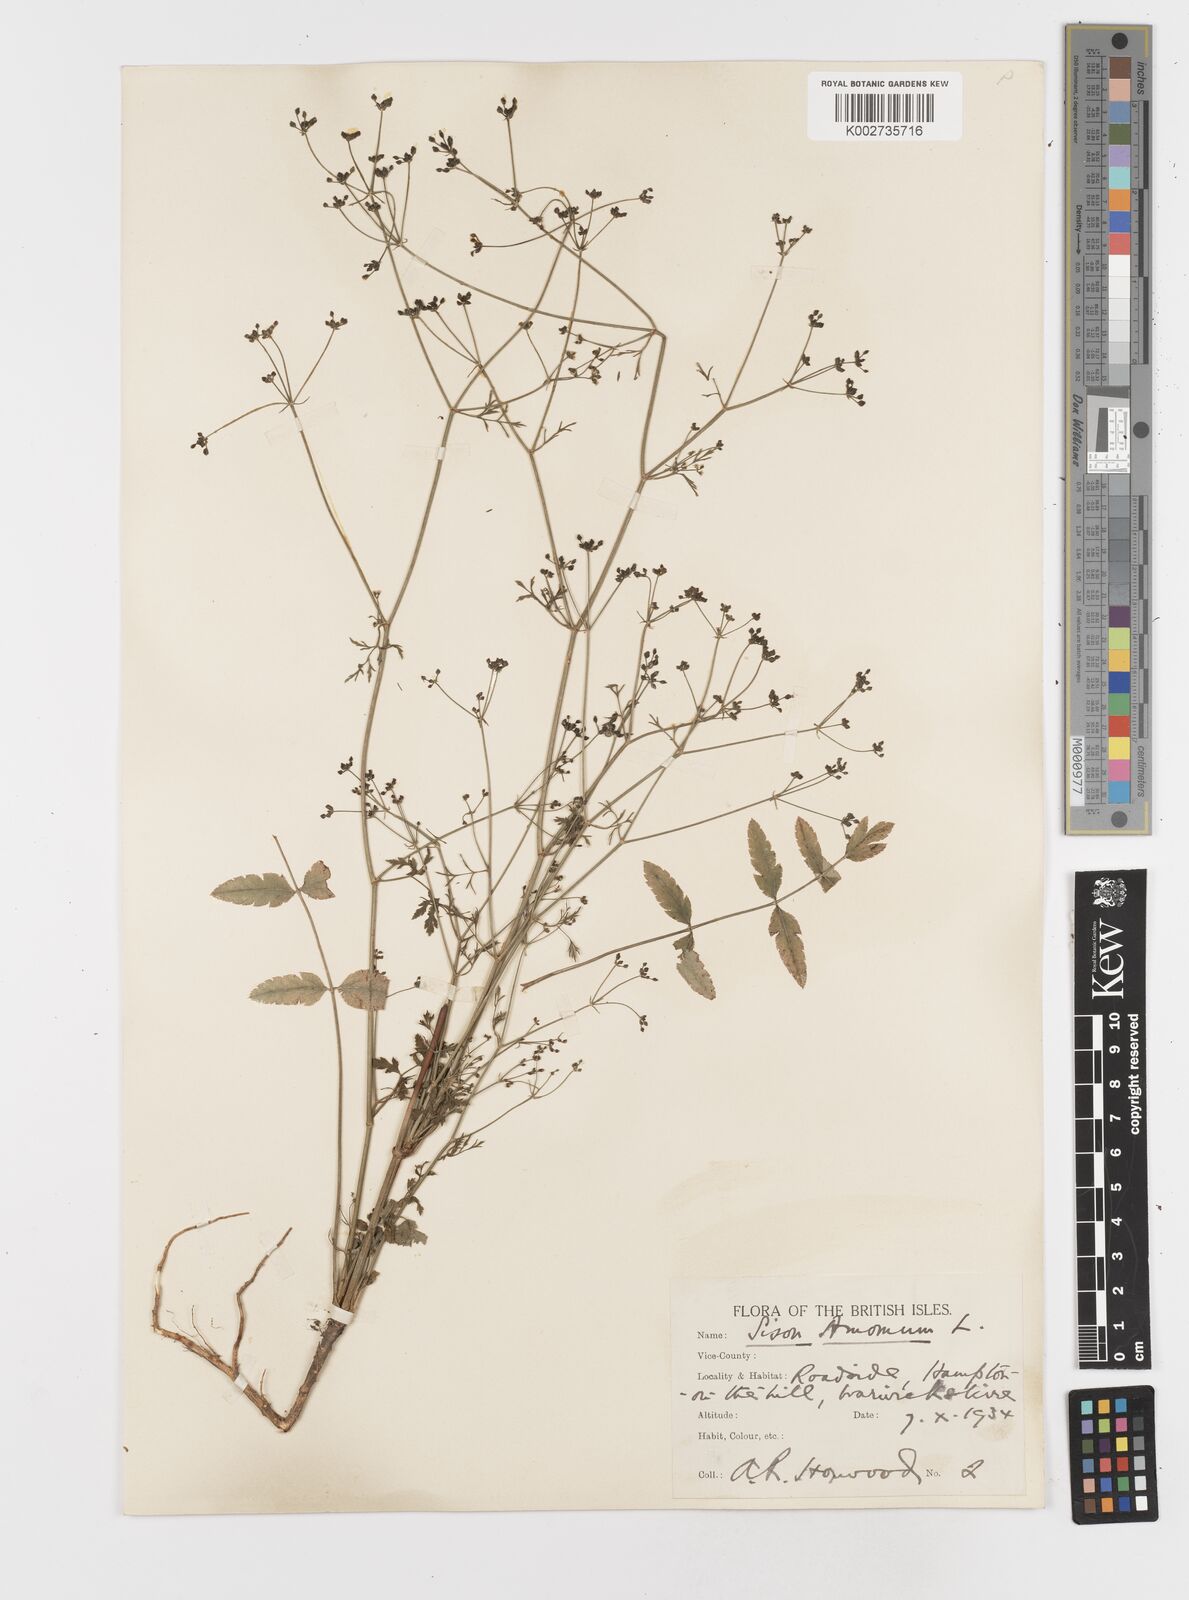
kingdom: Plantae
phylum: Tracheophyta
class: Magnoliopsida
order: Apiales
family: Apiaceae
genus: Sison
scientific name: Sison amomum
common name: Stone-parsley
